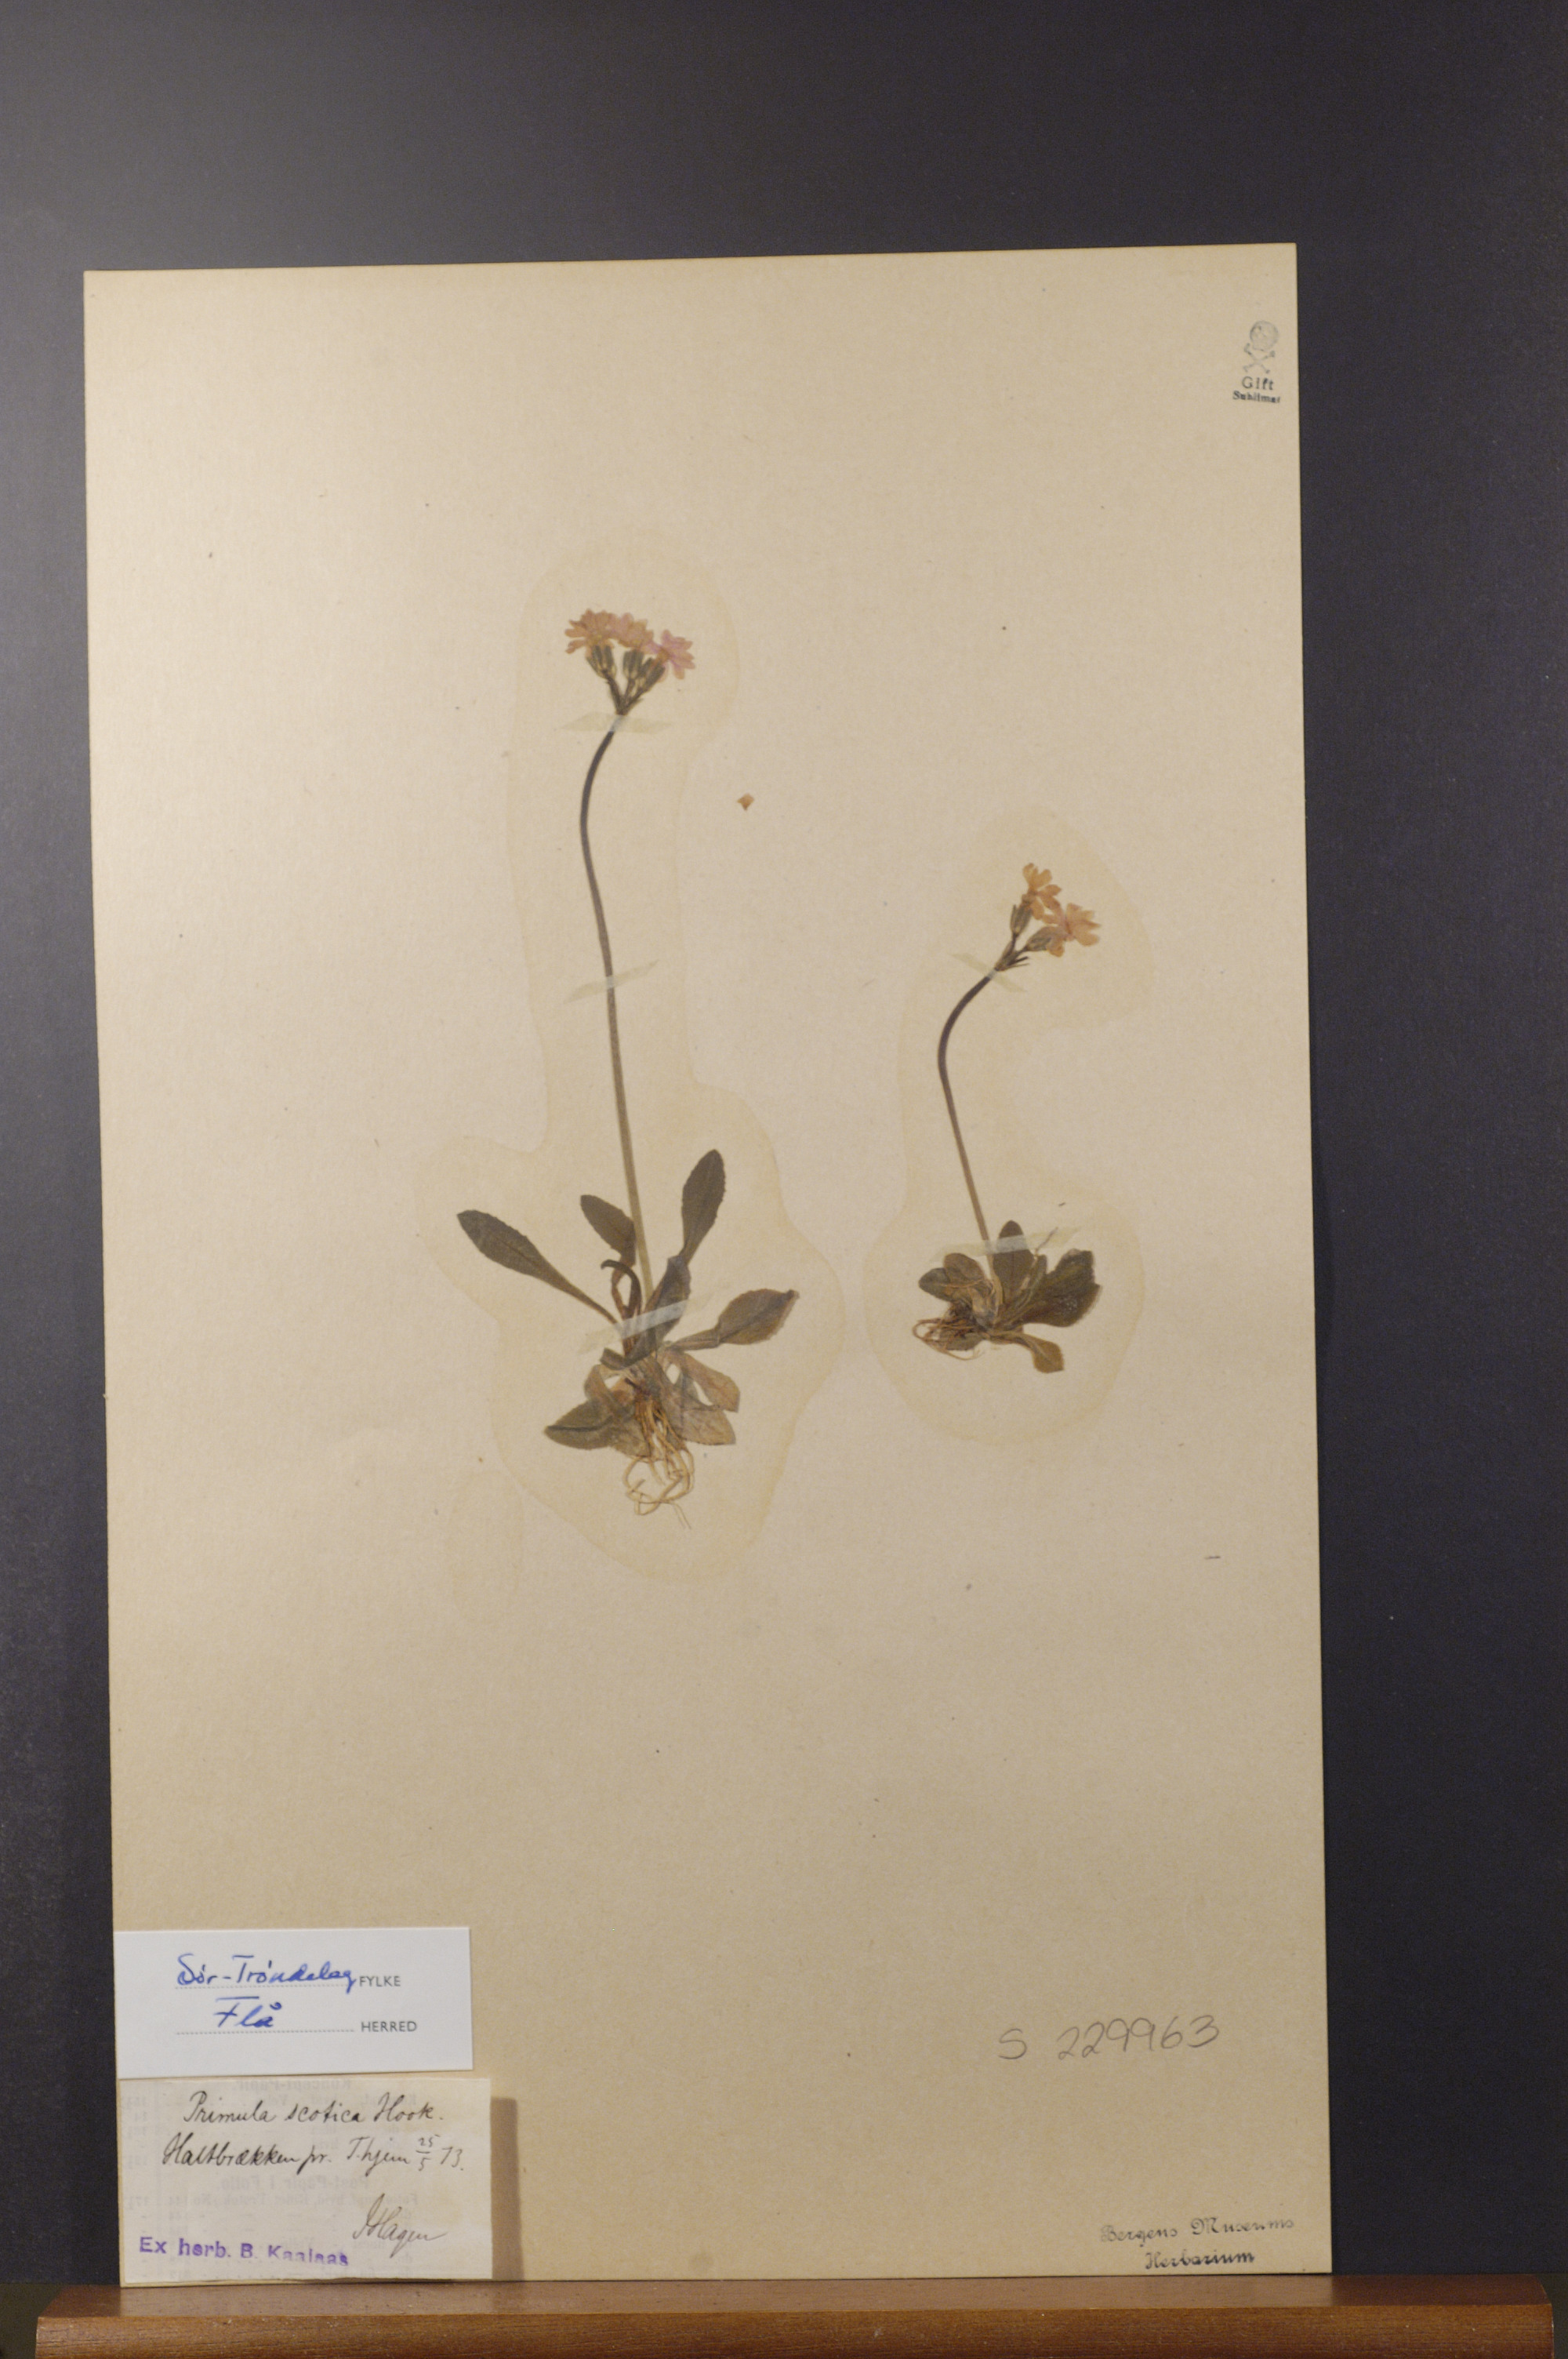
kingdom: Plantae
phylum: Tracheophyta
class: Magnoliopsida
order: Ericales
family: Primulaceae
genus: Primula
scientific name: Primula scotica
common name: Scottish primrose
